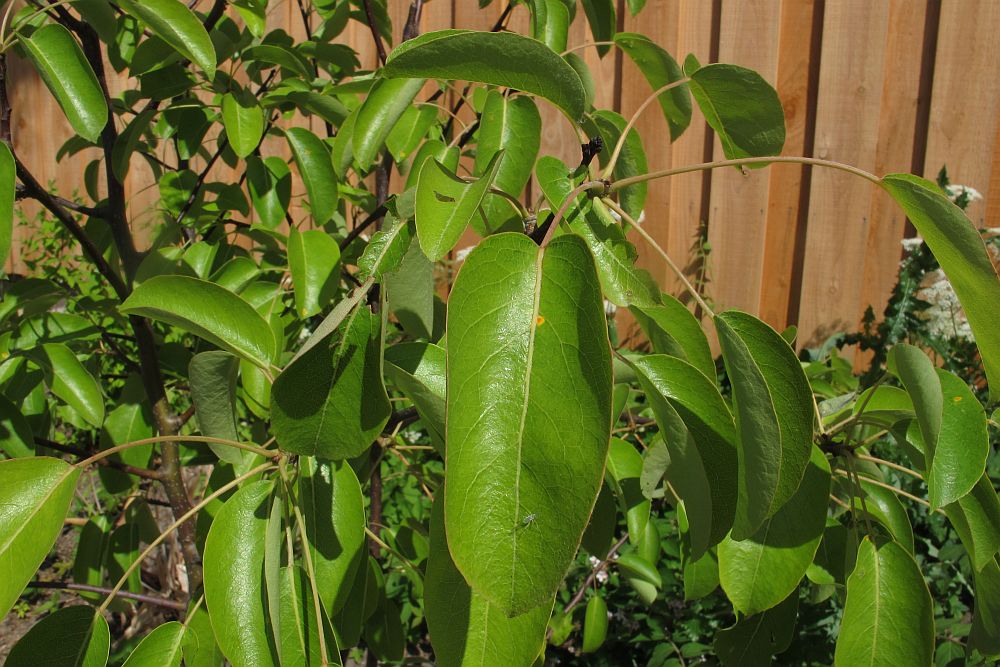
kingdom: Fungi
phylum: Basidiomycota
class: Pucciniomycetes
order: Pucciniales
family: Gymnosporangiaceae
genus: Gymnosporangium
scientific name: Gymnosporangium sabinae
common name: pæregitter-bævrerust
